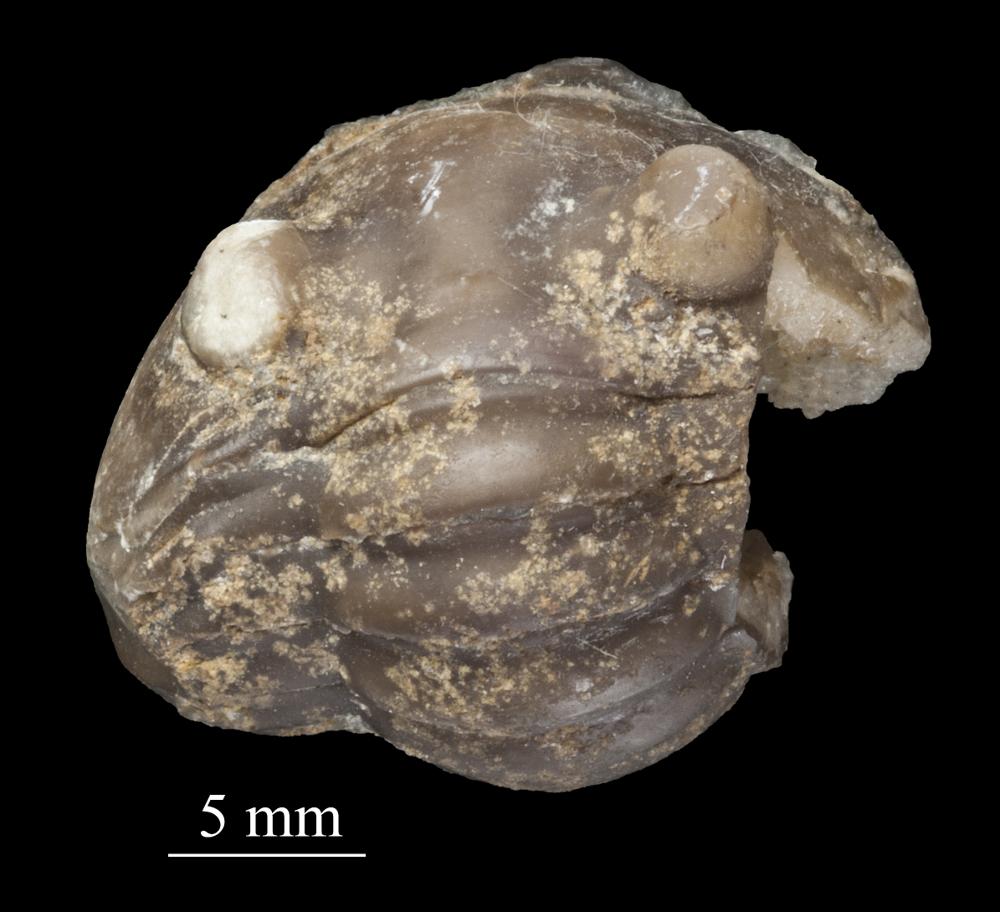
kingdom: Animalia
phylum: Arthropoda
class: Trilobita
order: Asaphida
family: Asaphidae
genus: Asaphus
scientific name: Asaphus ornatus
